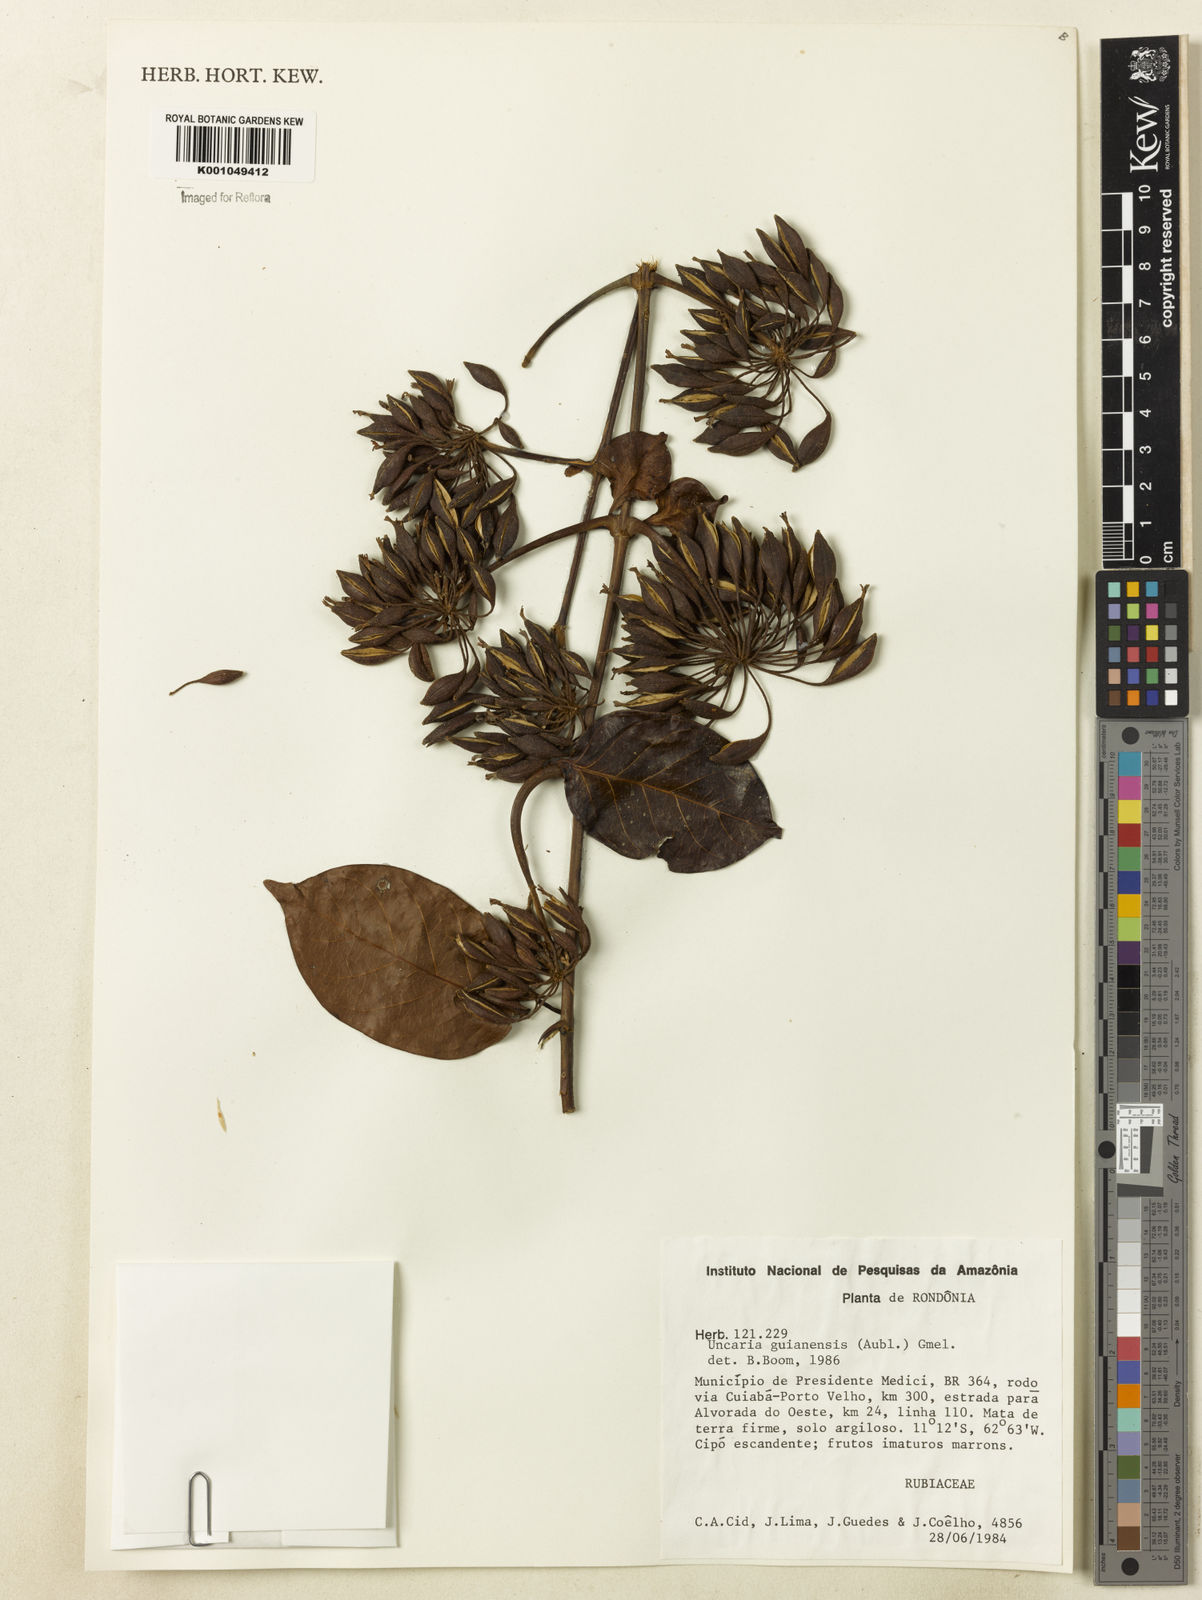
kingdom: Plantae
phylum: Tracheophyta
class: Magnoliopsida
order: Gentianales
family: Rubiaceae
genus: Uncaria
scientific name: Uncaria guianensis
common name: Cat's-claw
